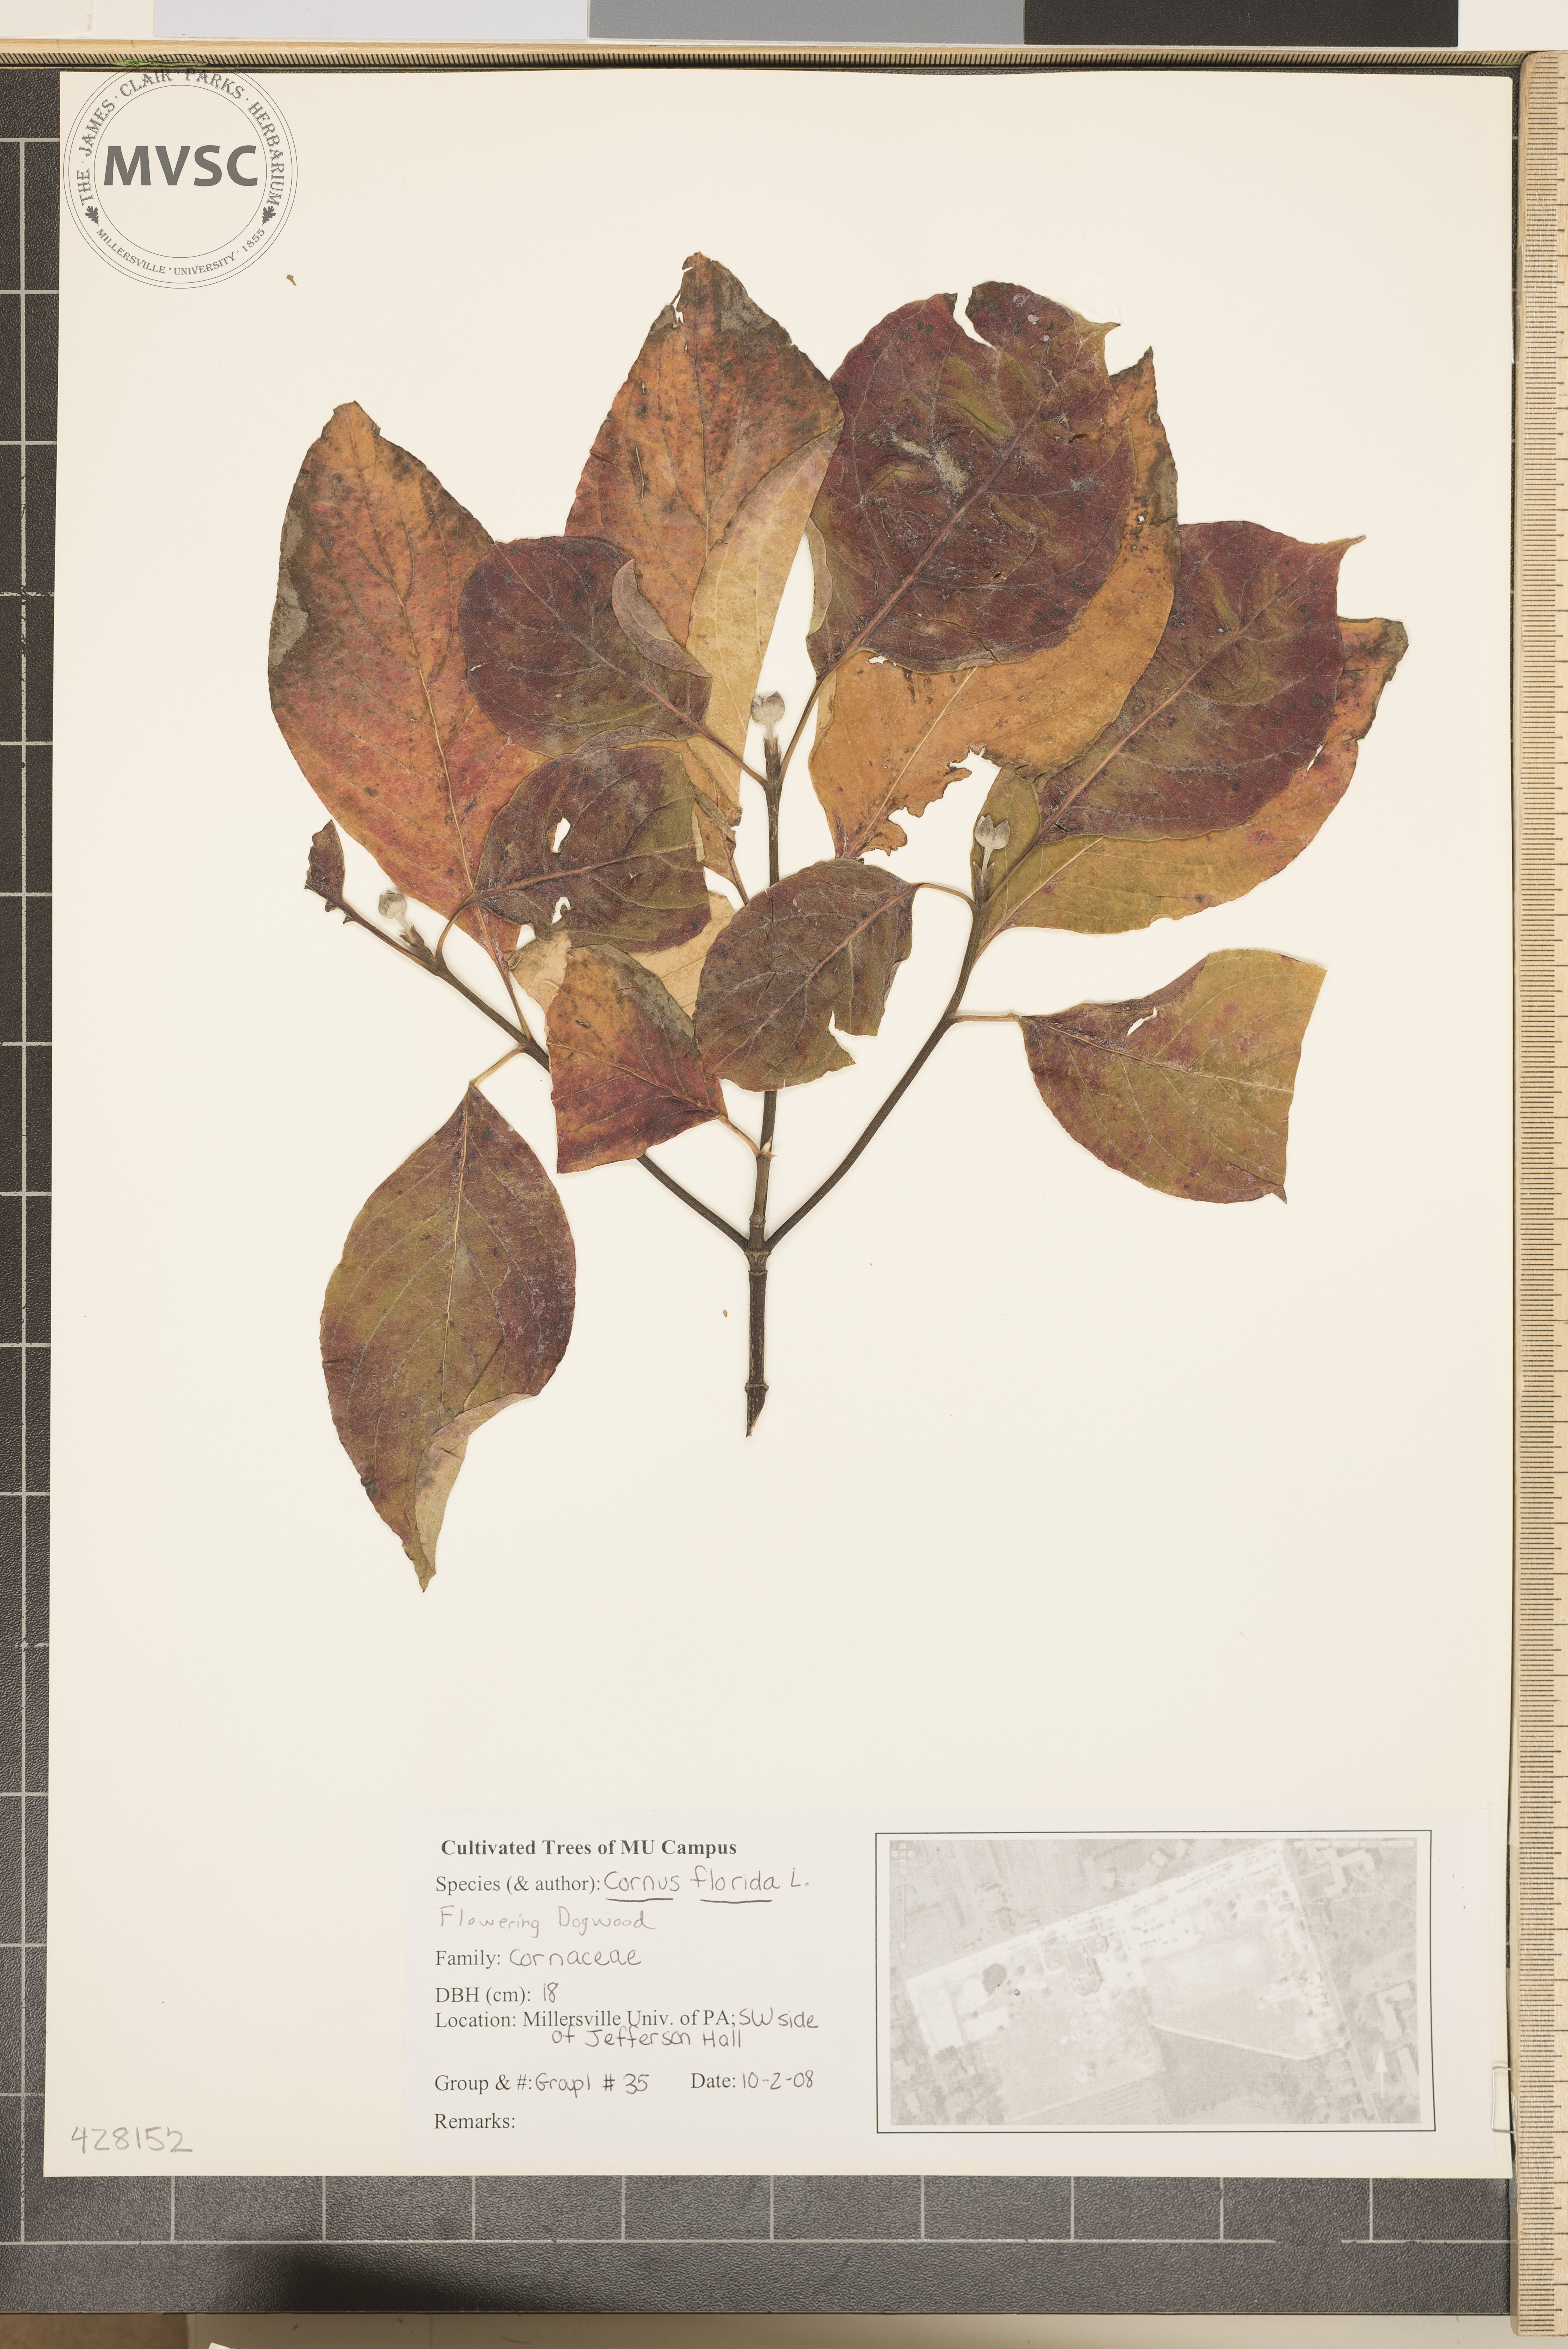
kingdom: Plantae
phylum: Tracheophyta
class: Magnoliopsida
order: Cornales
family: Cornaceae
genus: Cornus
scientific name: Cornus florida
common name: Flowering Dogwood
